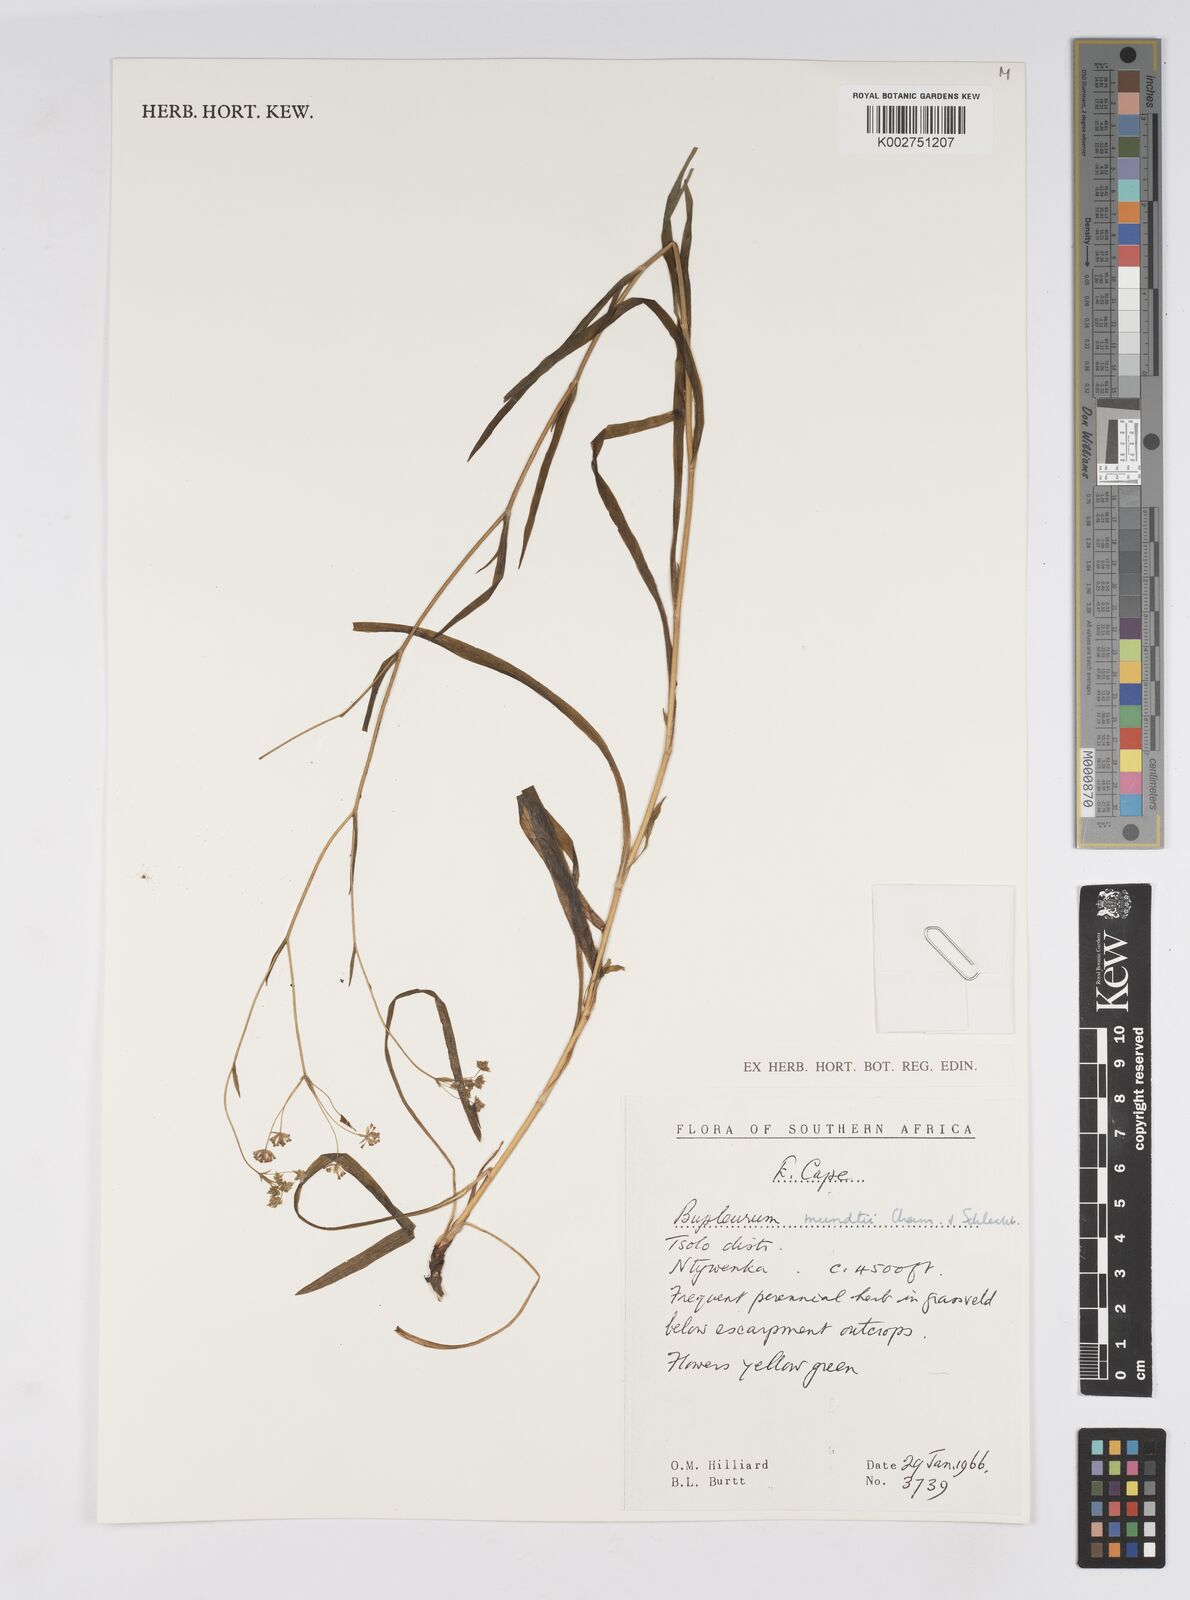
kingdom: Plantae
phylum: Tracheophyta
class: Magnoliopsida
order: Apiales
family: Apiaceae
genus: Bupleurum
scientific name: Bupleurum mundii
